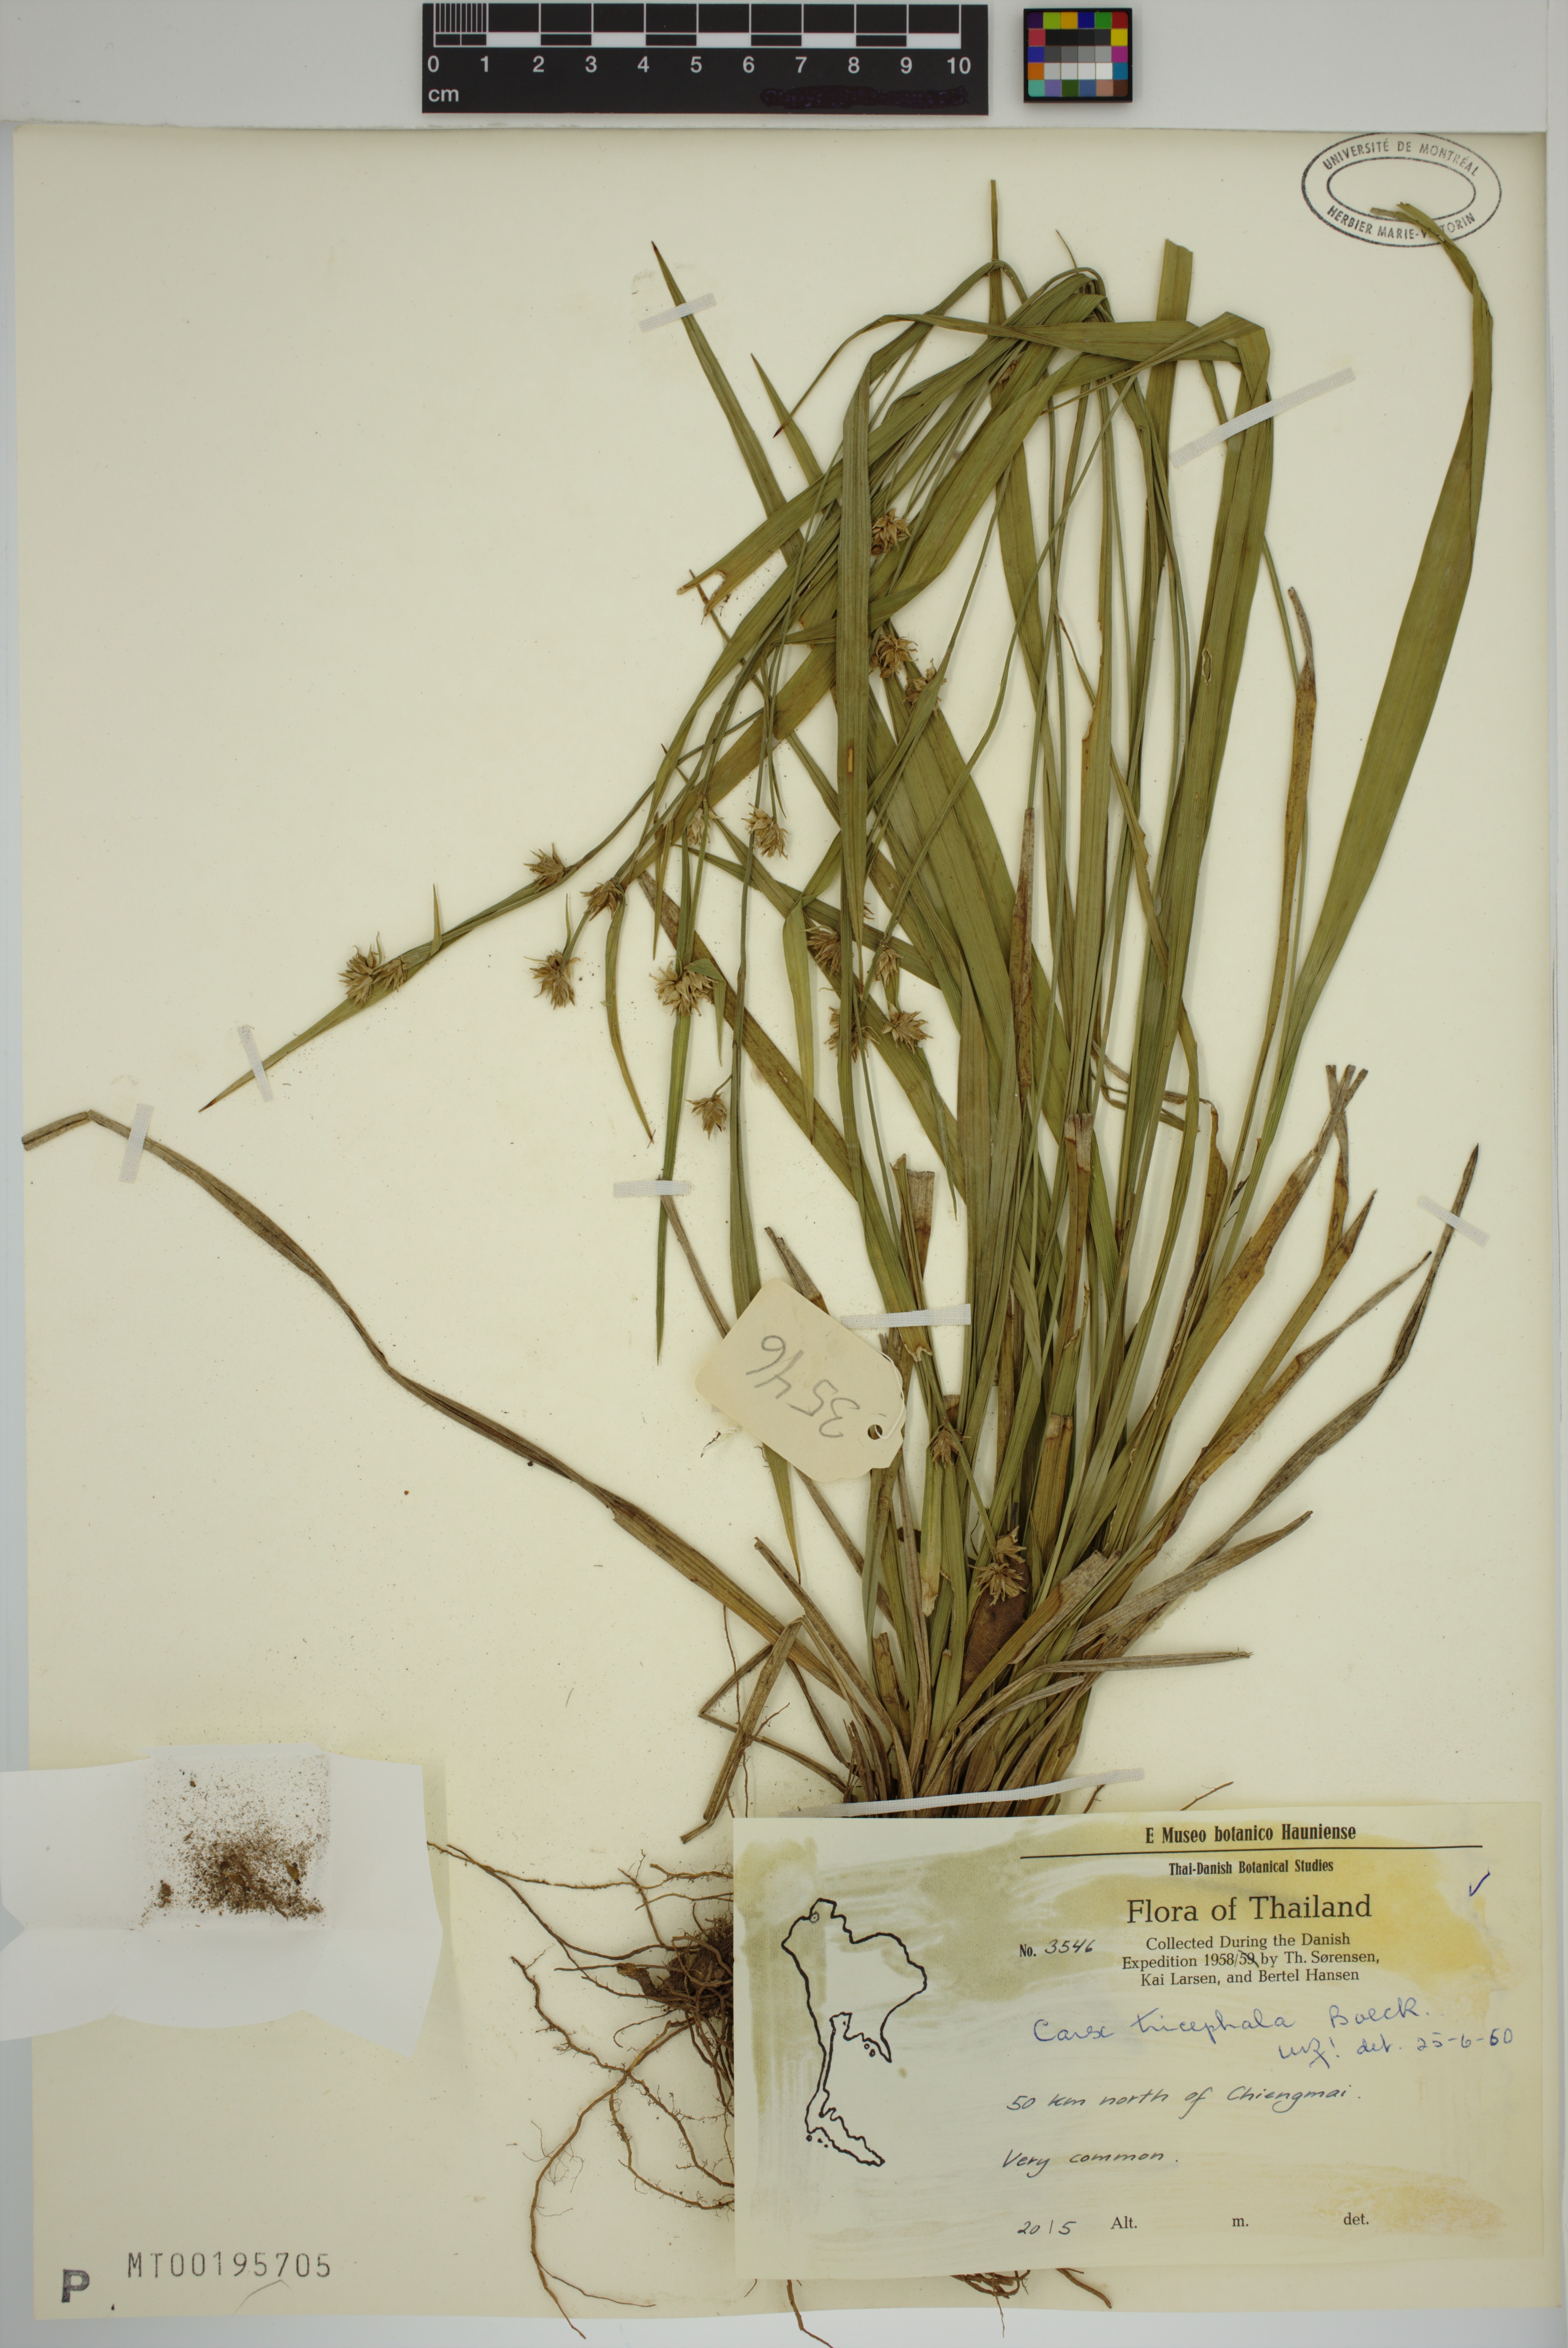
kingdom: Plantae
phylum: Tracheophyta
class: Liliopsida
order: Poales
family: Cyperaceae
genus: Carex
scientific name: Carex tricephala
